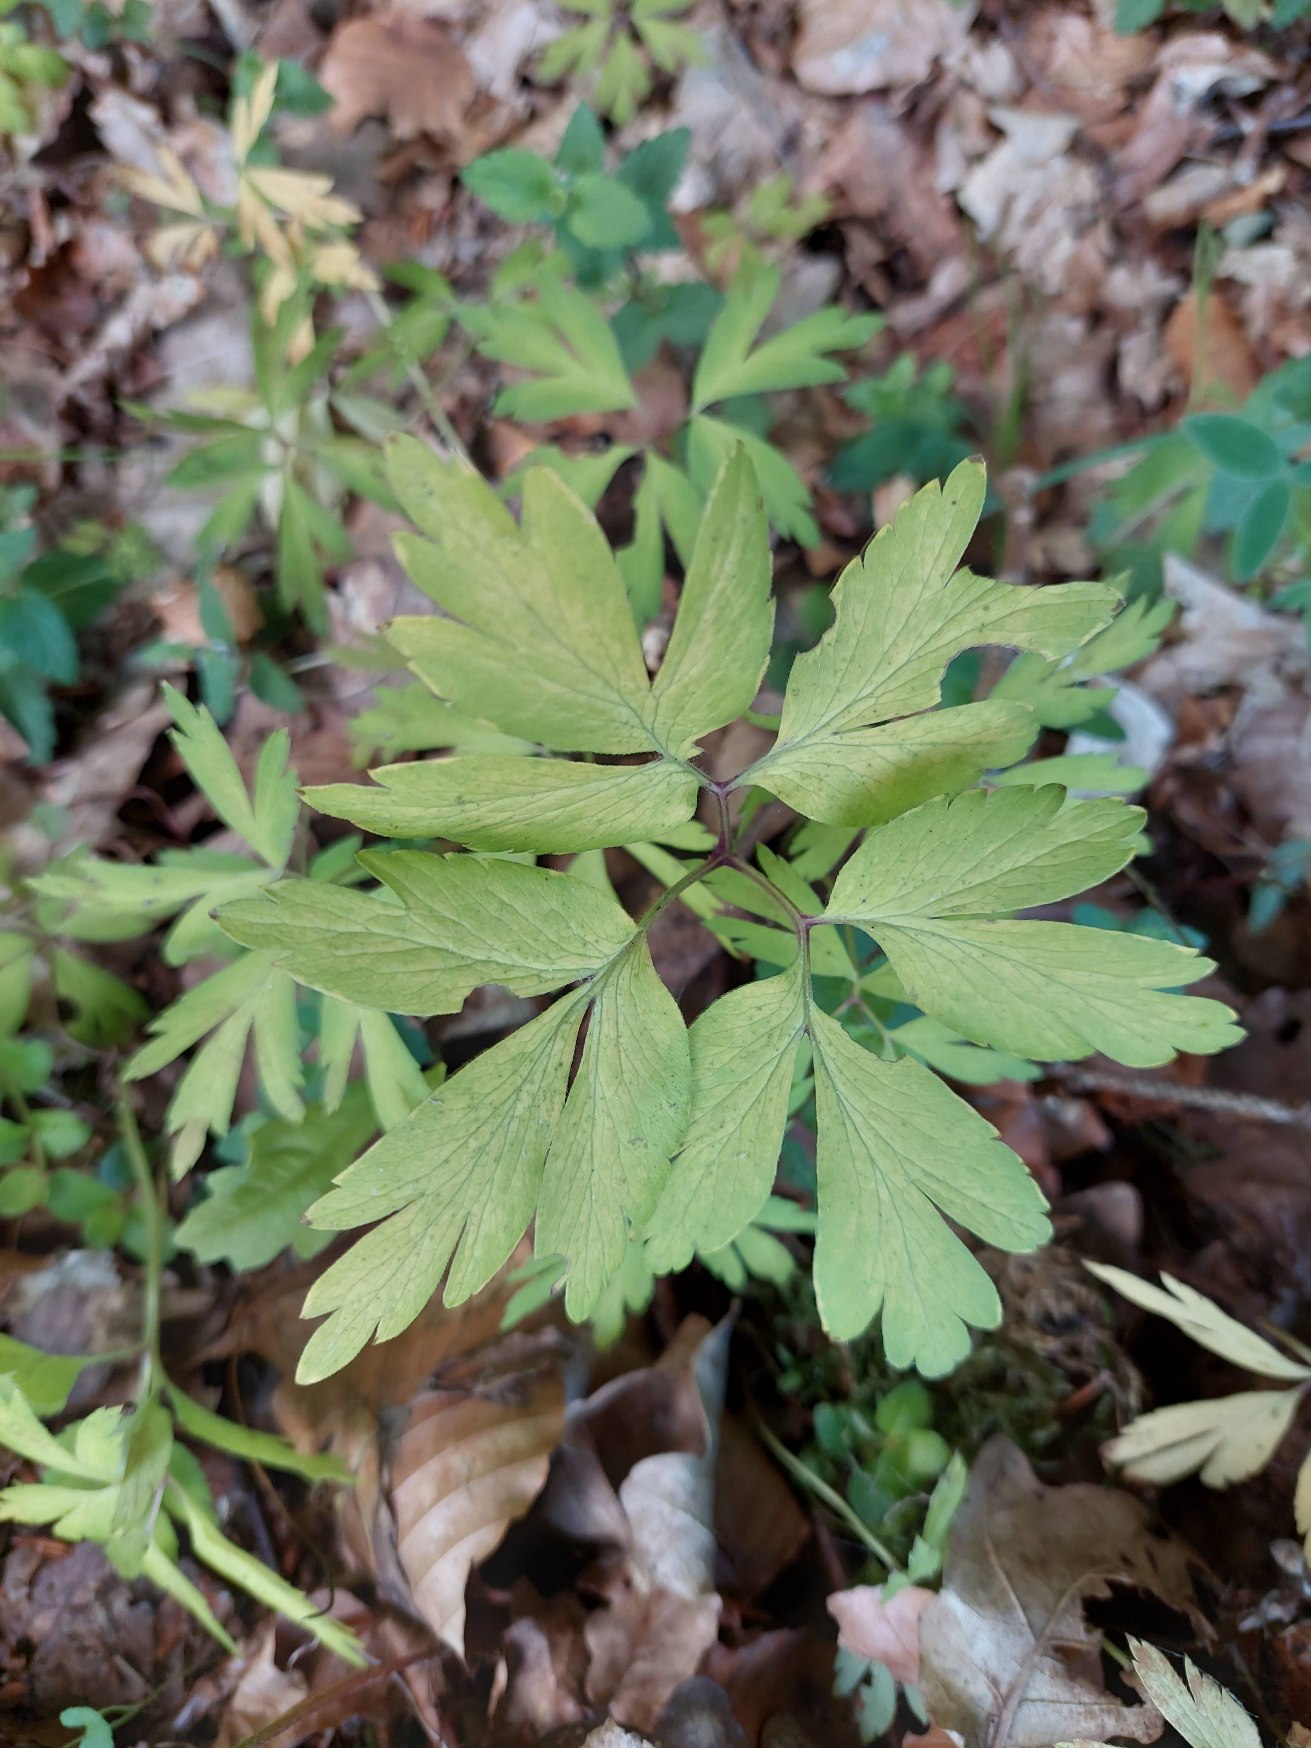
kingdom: Plantae
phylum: Tracheophyta
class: Magnoliopsida
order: Ranunculales
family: Ranunculaceae
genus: Anemone
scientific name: Anemone nemorosa
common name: Hvid anemone
